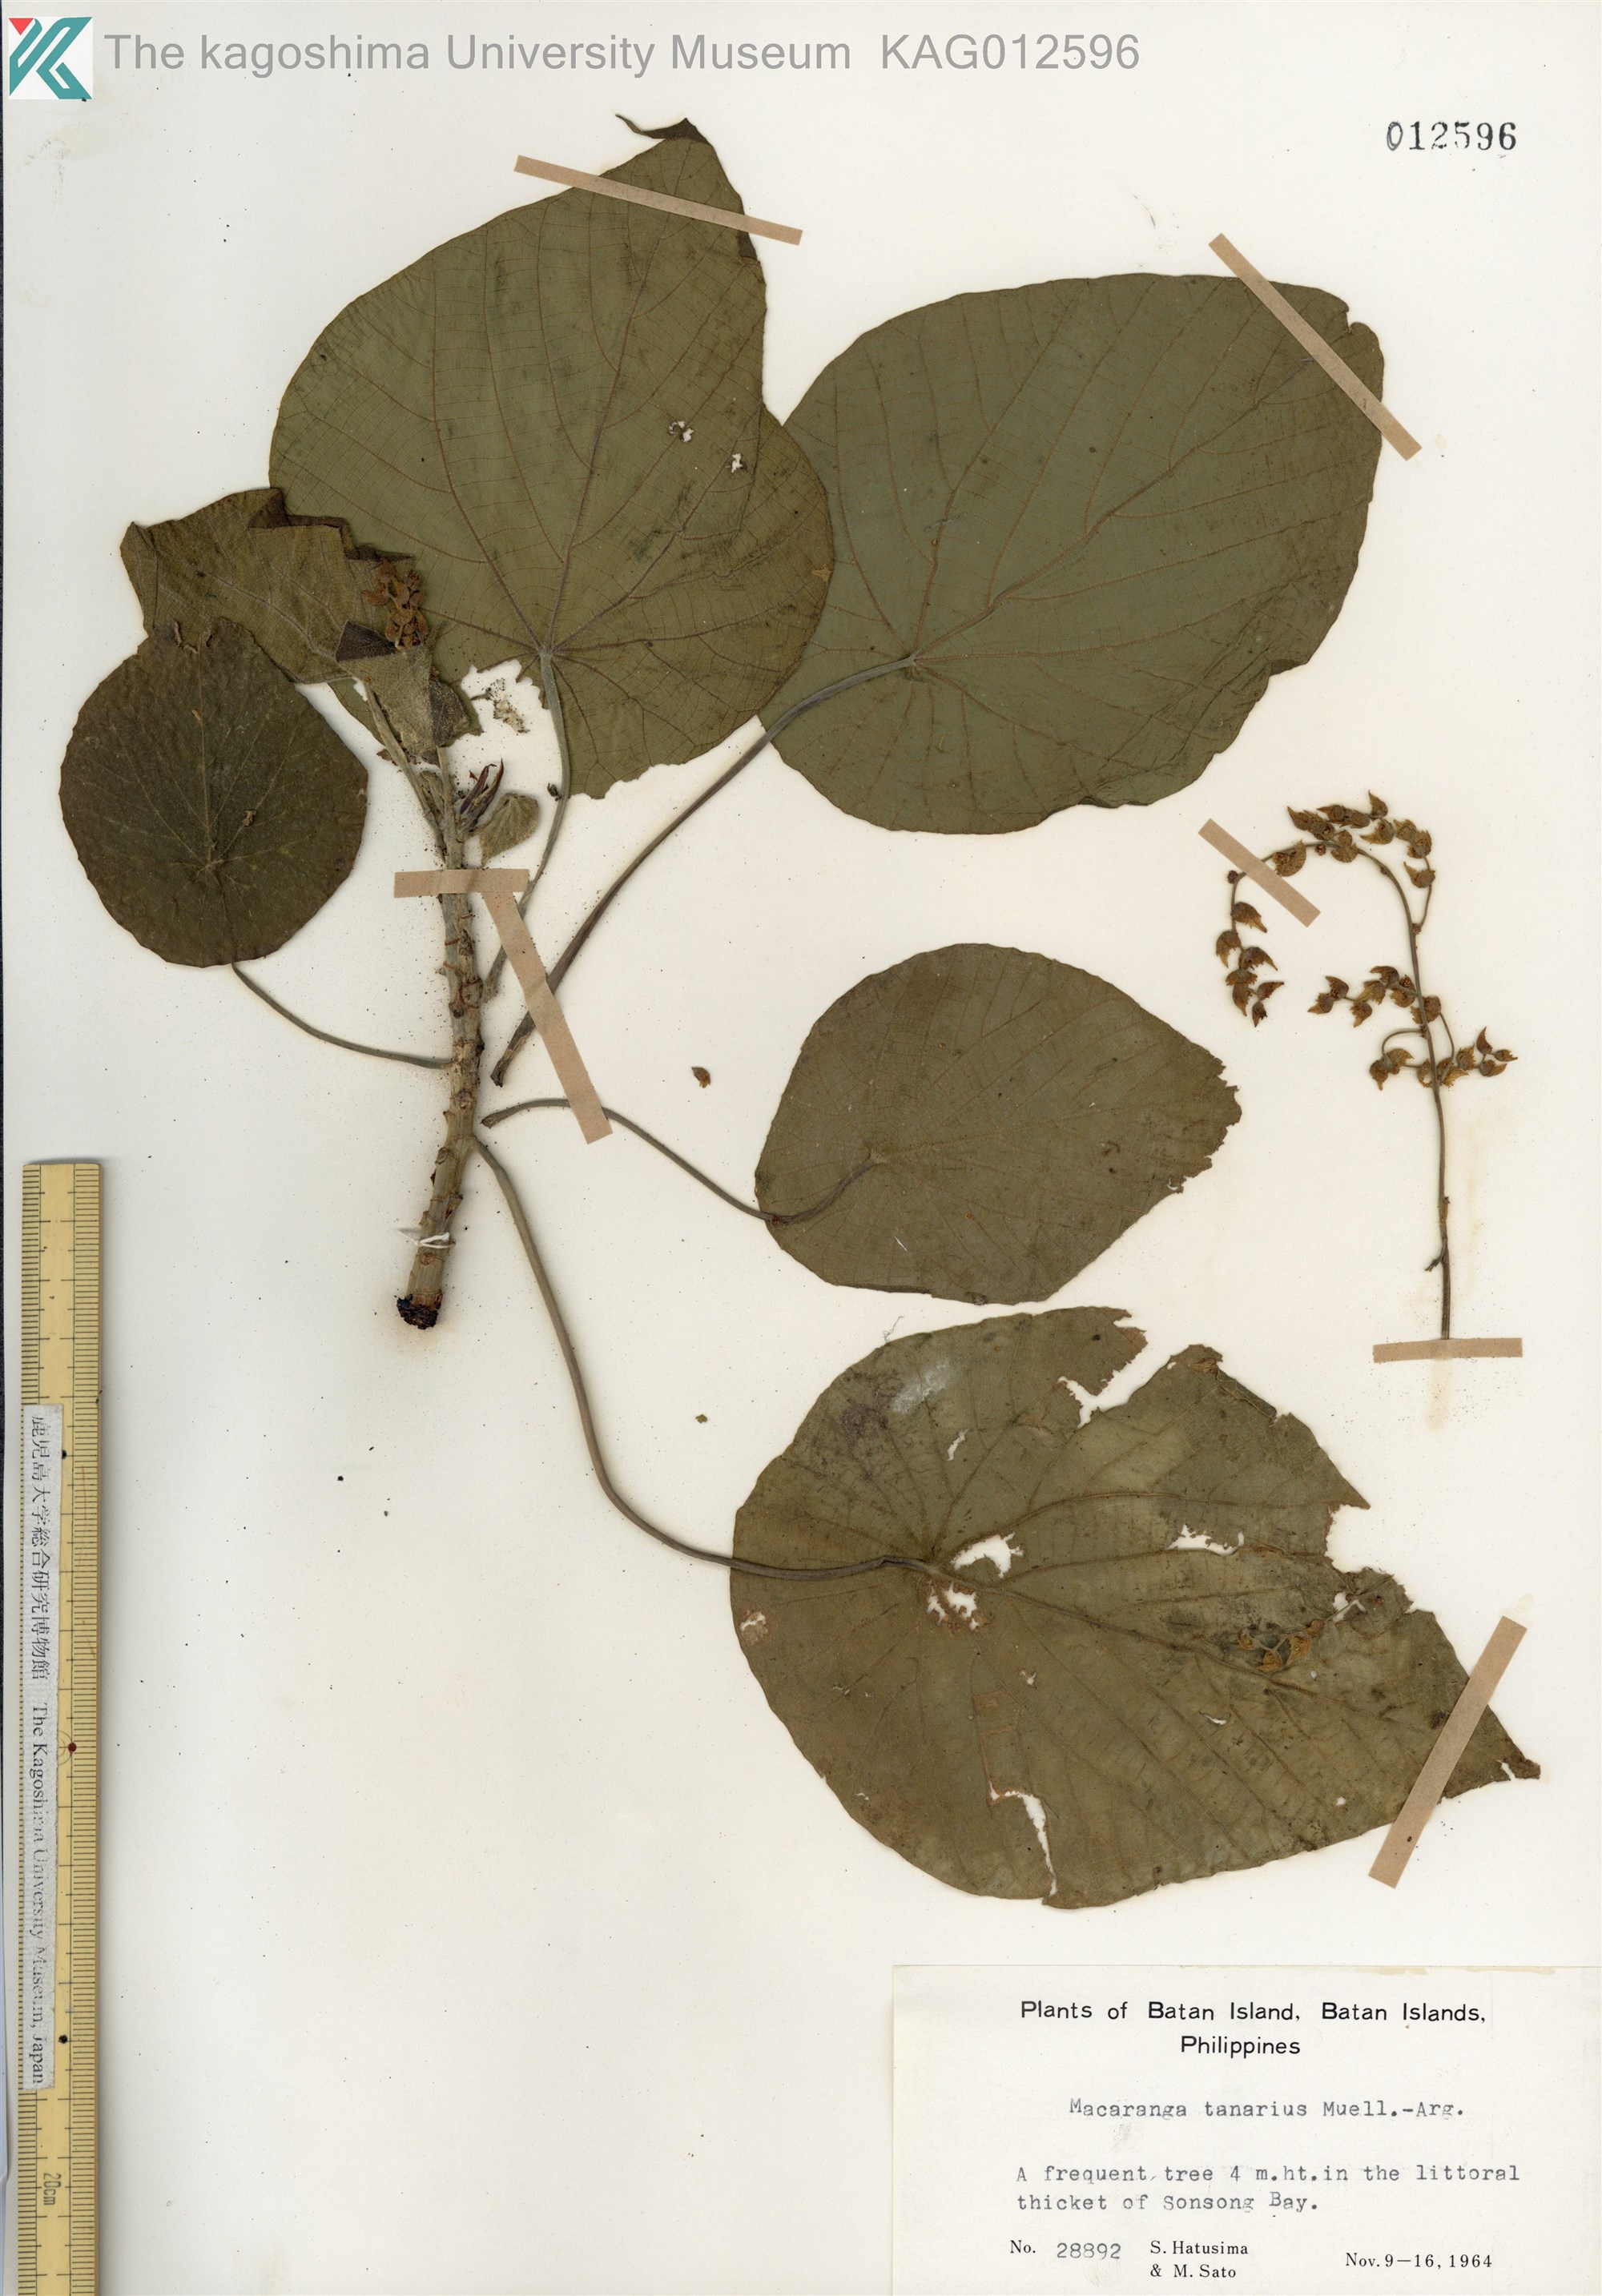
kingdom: Plantae
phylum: Tracheophyta
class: Magnoliopsida
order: Malpighiales
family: Euphorbiaceae
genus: Macaranga
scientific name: Macaranga tanarius
